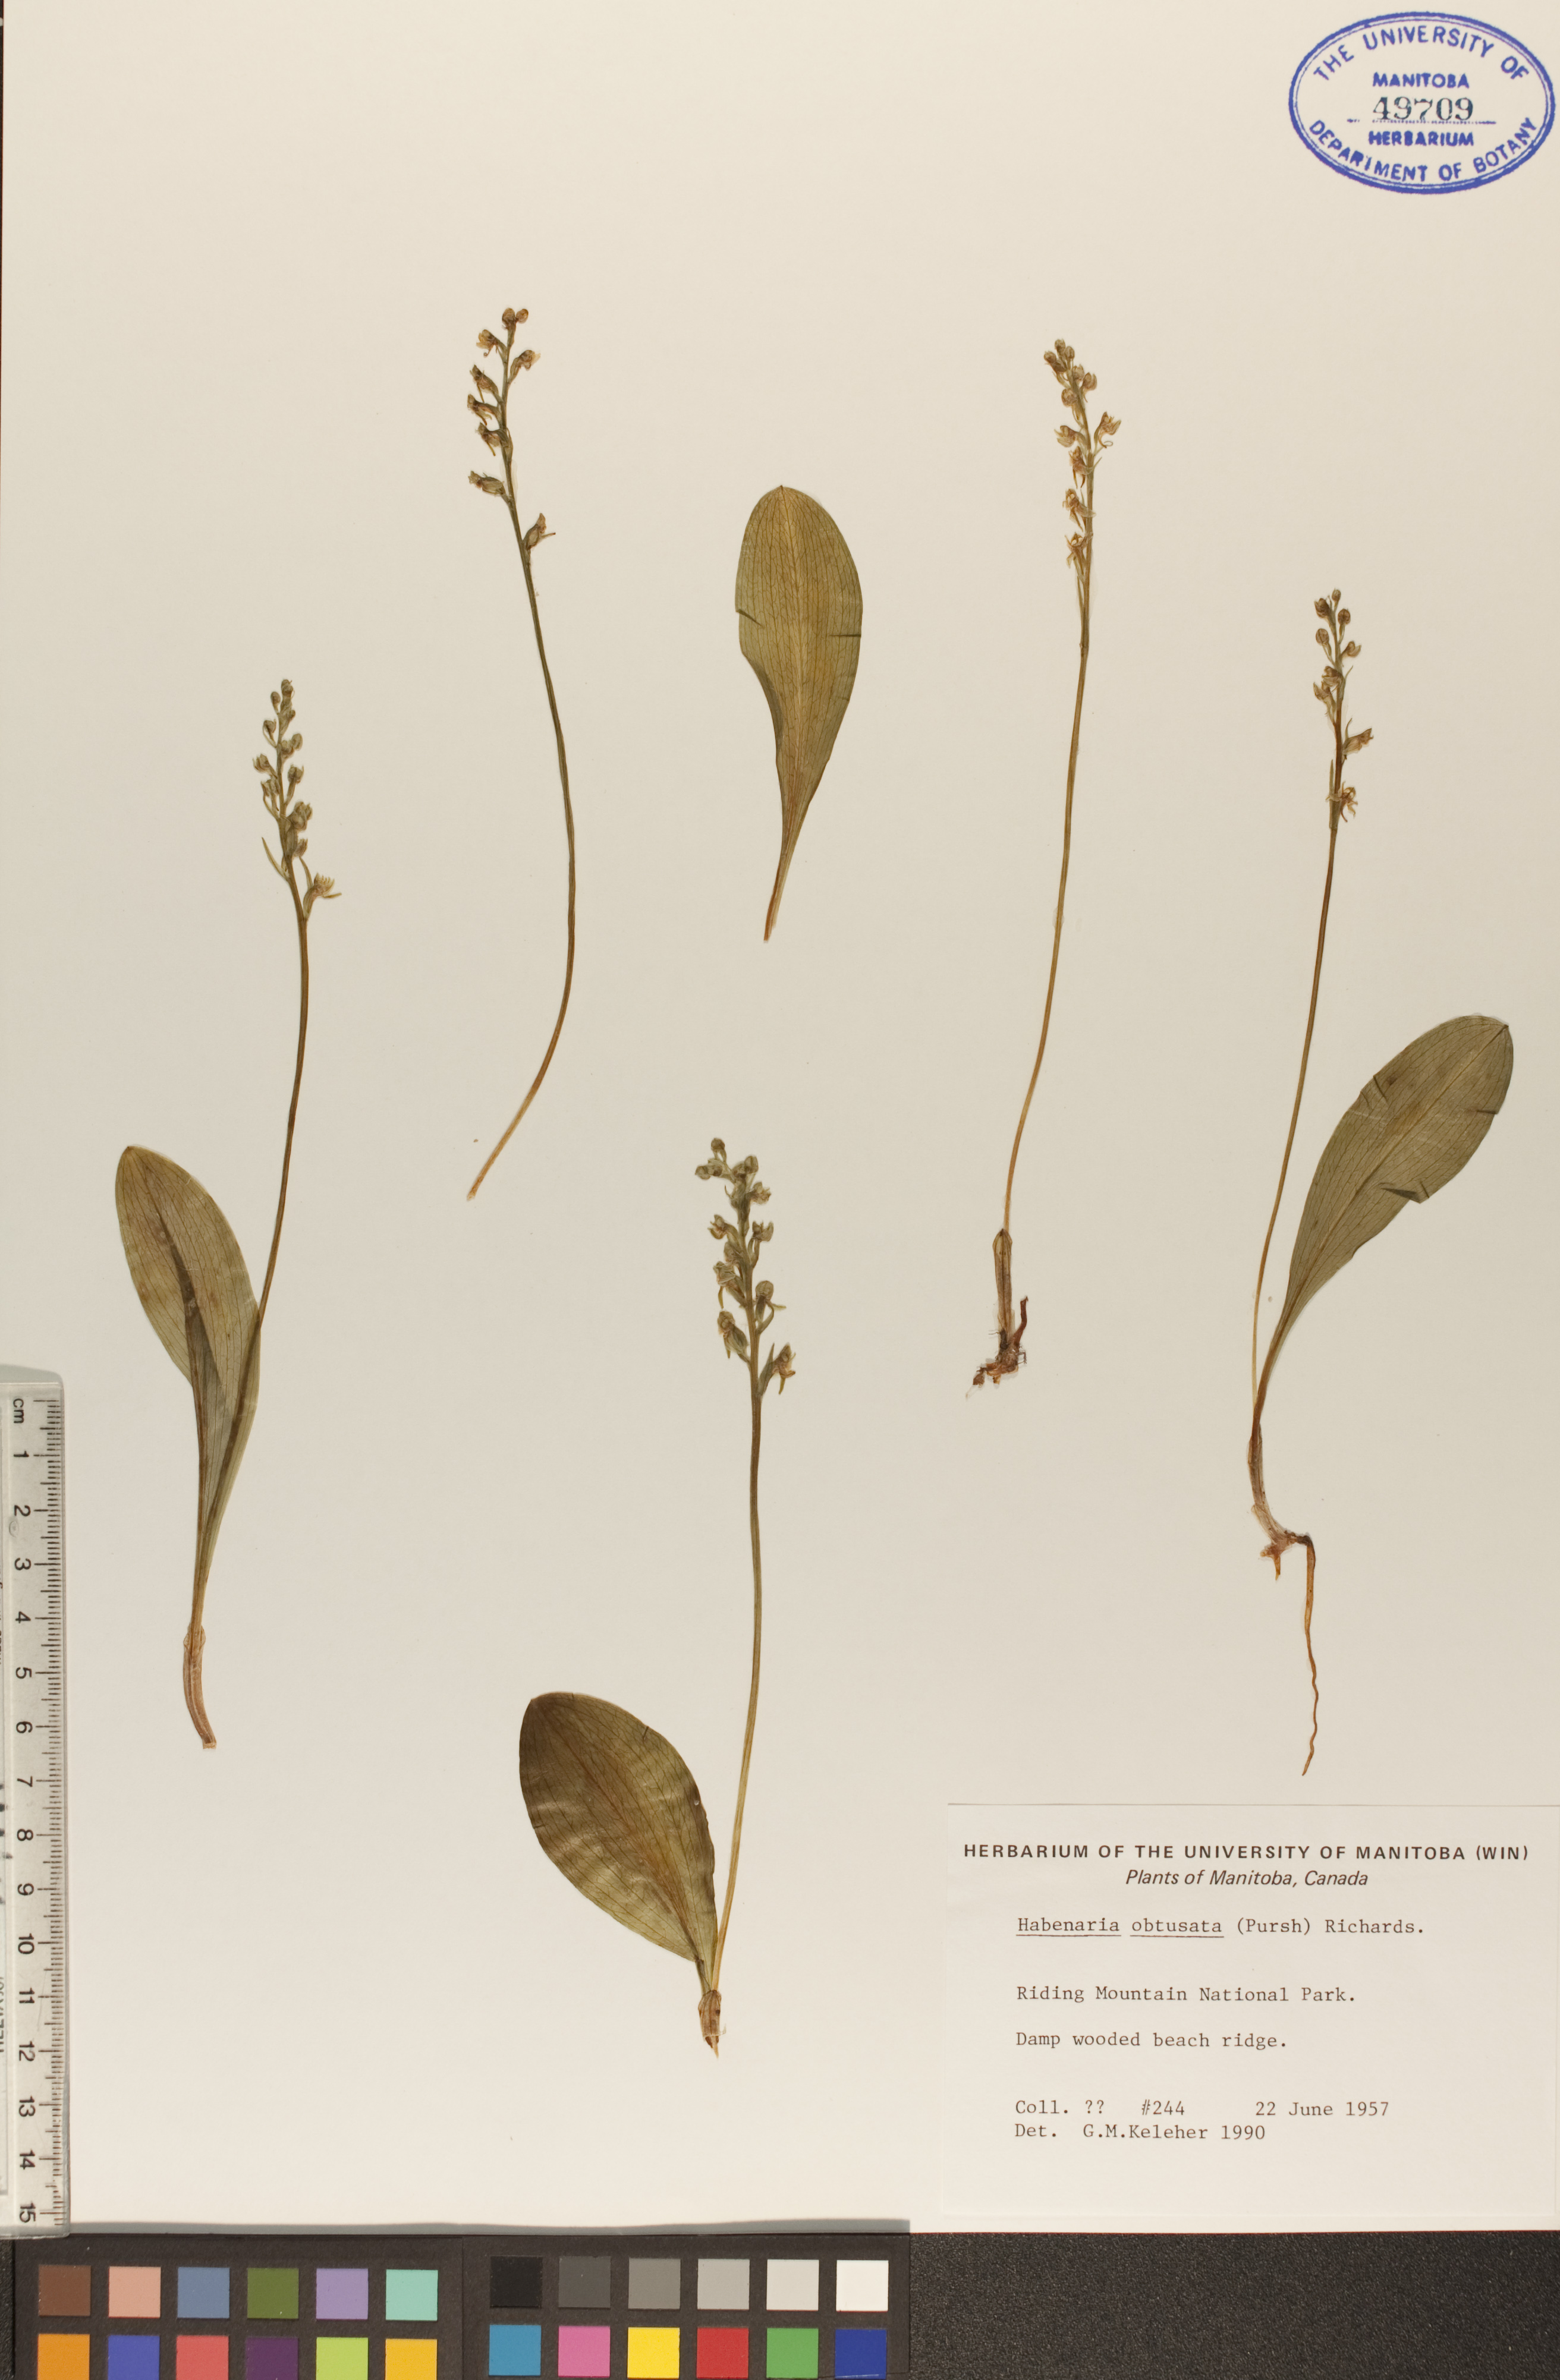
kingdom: Plantae
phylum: Tracheophyta
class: Liliopsida
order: Asparagales
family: Orchidaceae
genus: Platanthera
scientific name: Platanthera obtusata
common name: Blunt bog orchid
